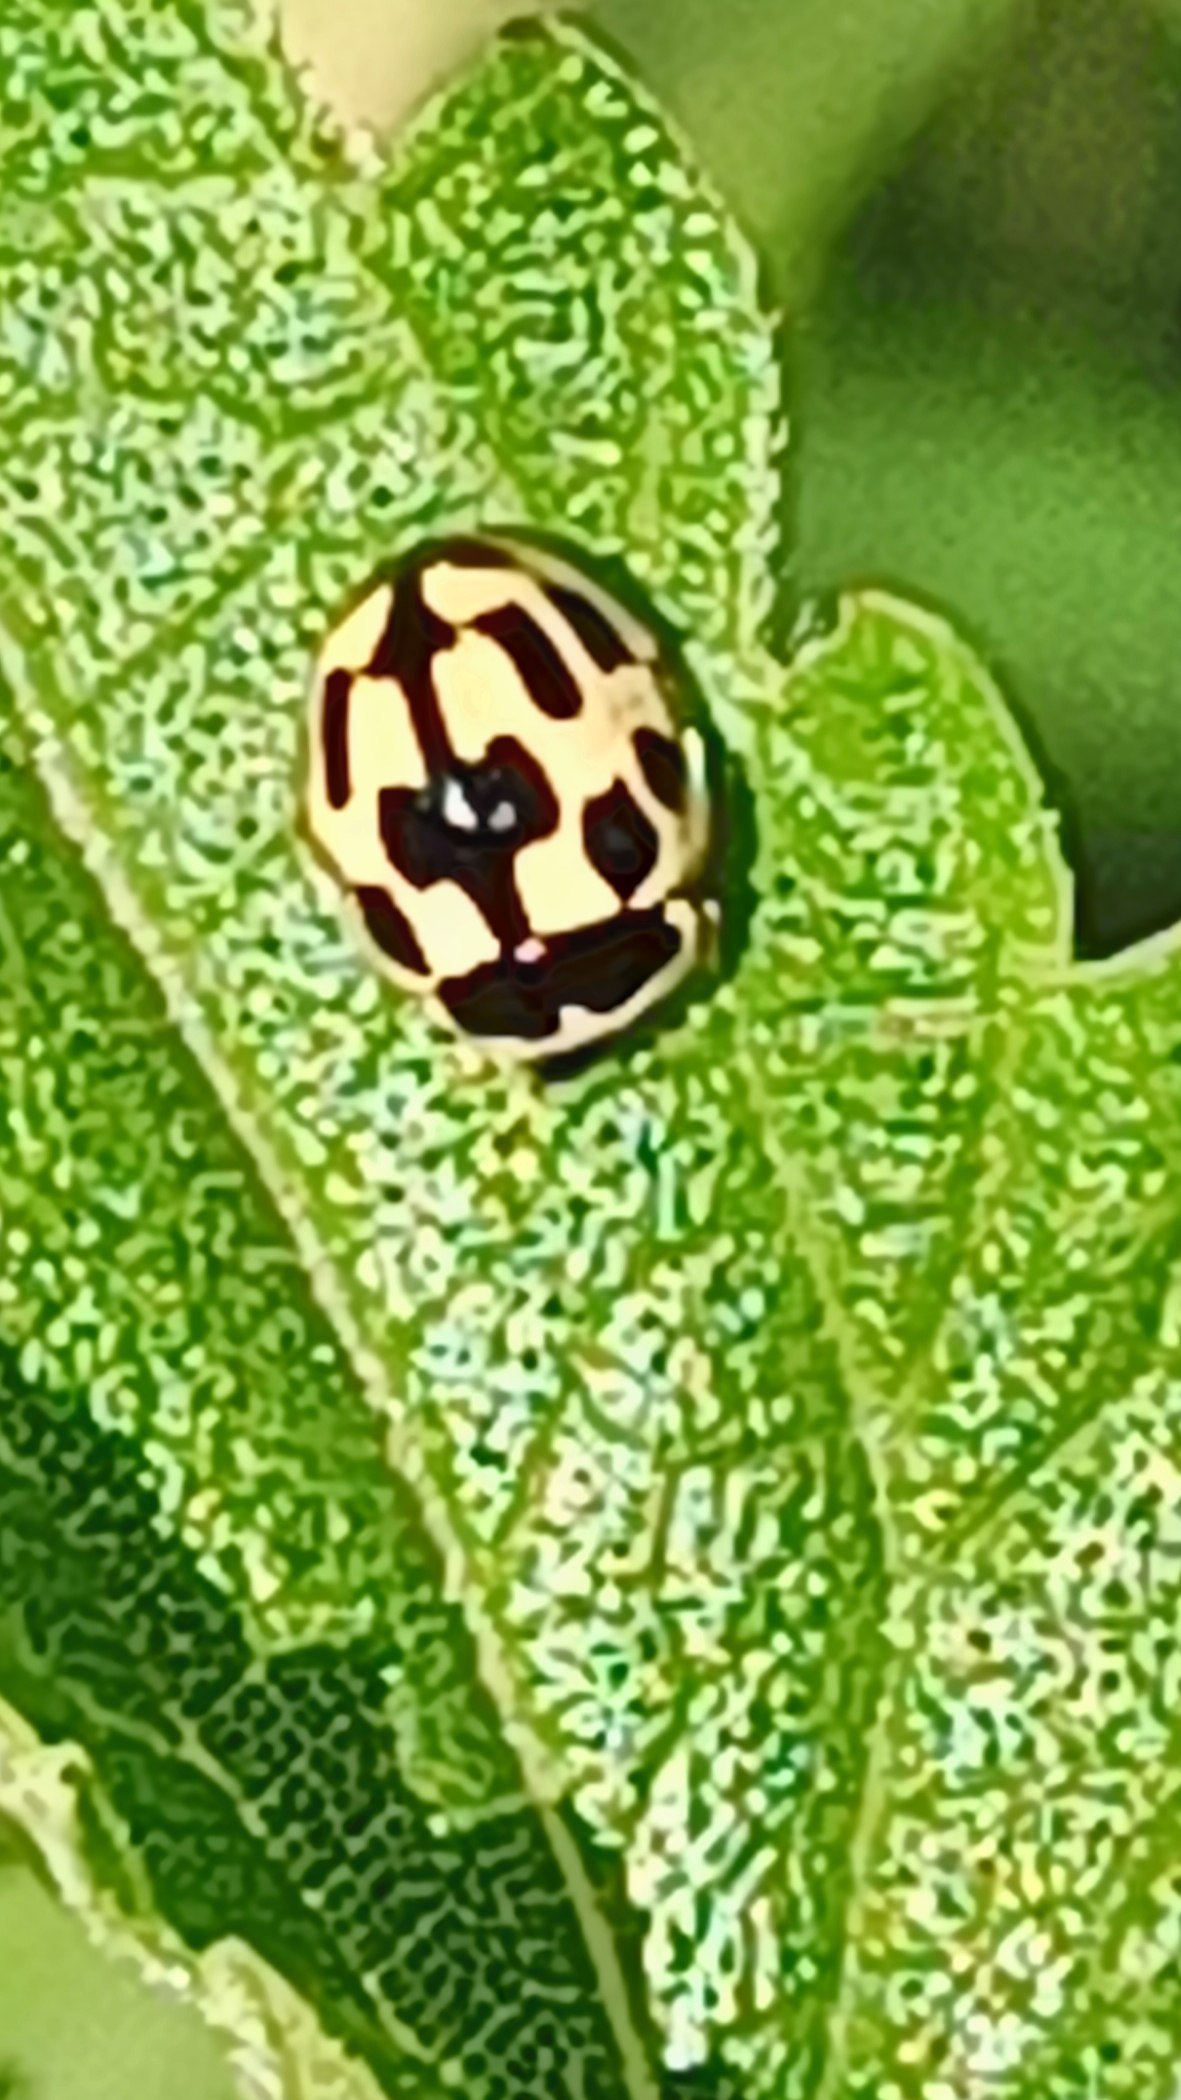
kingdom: Animalia
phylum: Arthropoda
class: Insecta
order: Coleoptera
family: Coccinellidae
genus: Propylaea
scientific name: Propylaea quatuordecimpunctata
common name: Skakbræt
